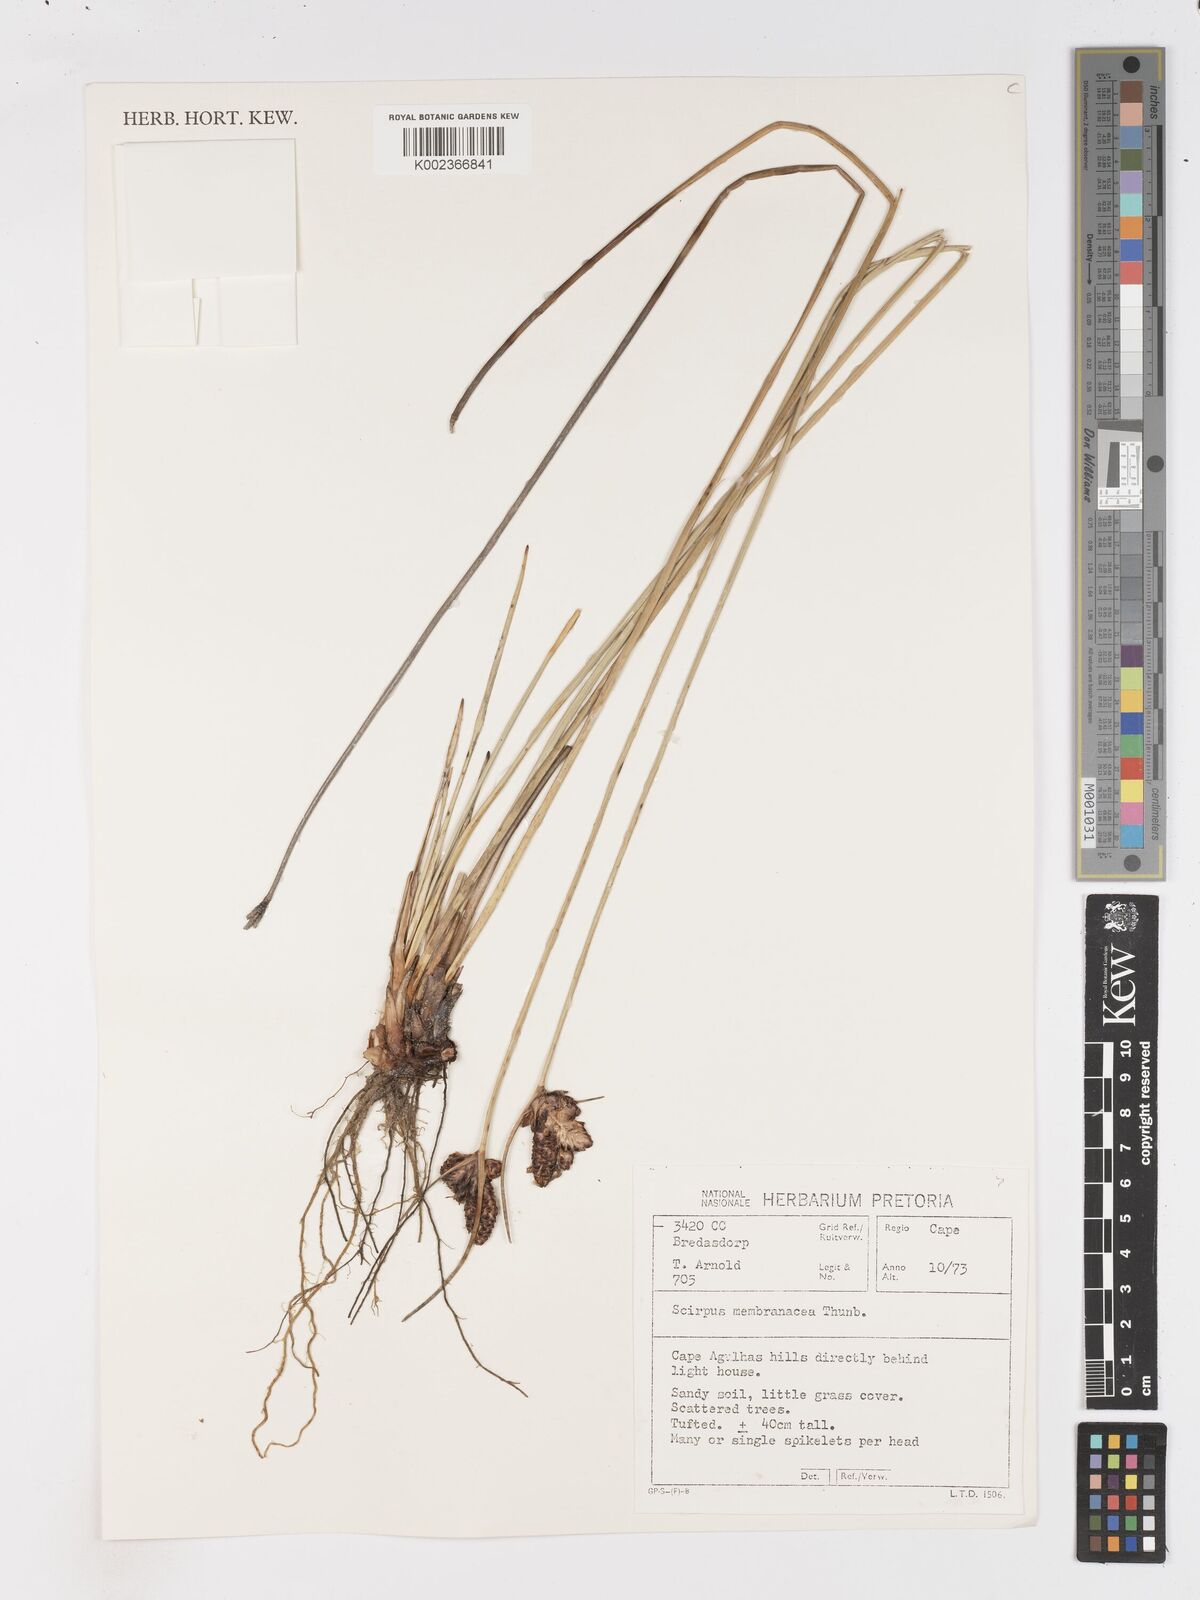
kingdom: Plantae
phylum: Tracheophyta
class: Liliopsida
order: Poales
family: Cyperaceae
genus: Hellmuthia
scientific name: Hellmuthia membranacea
